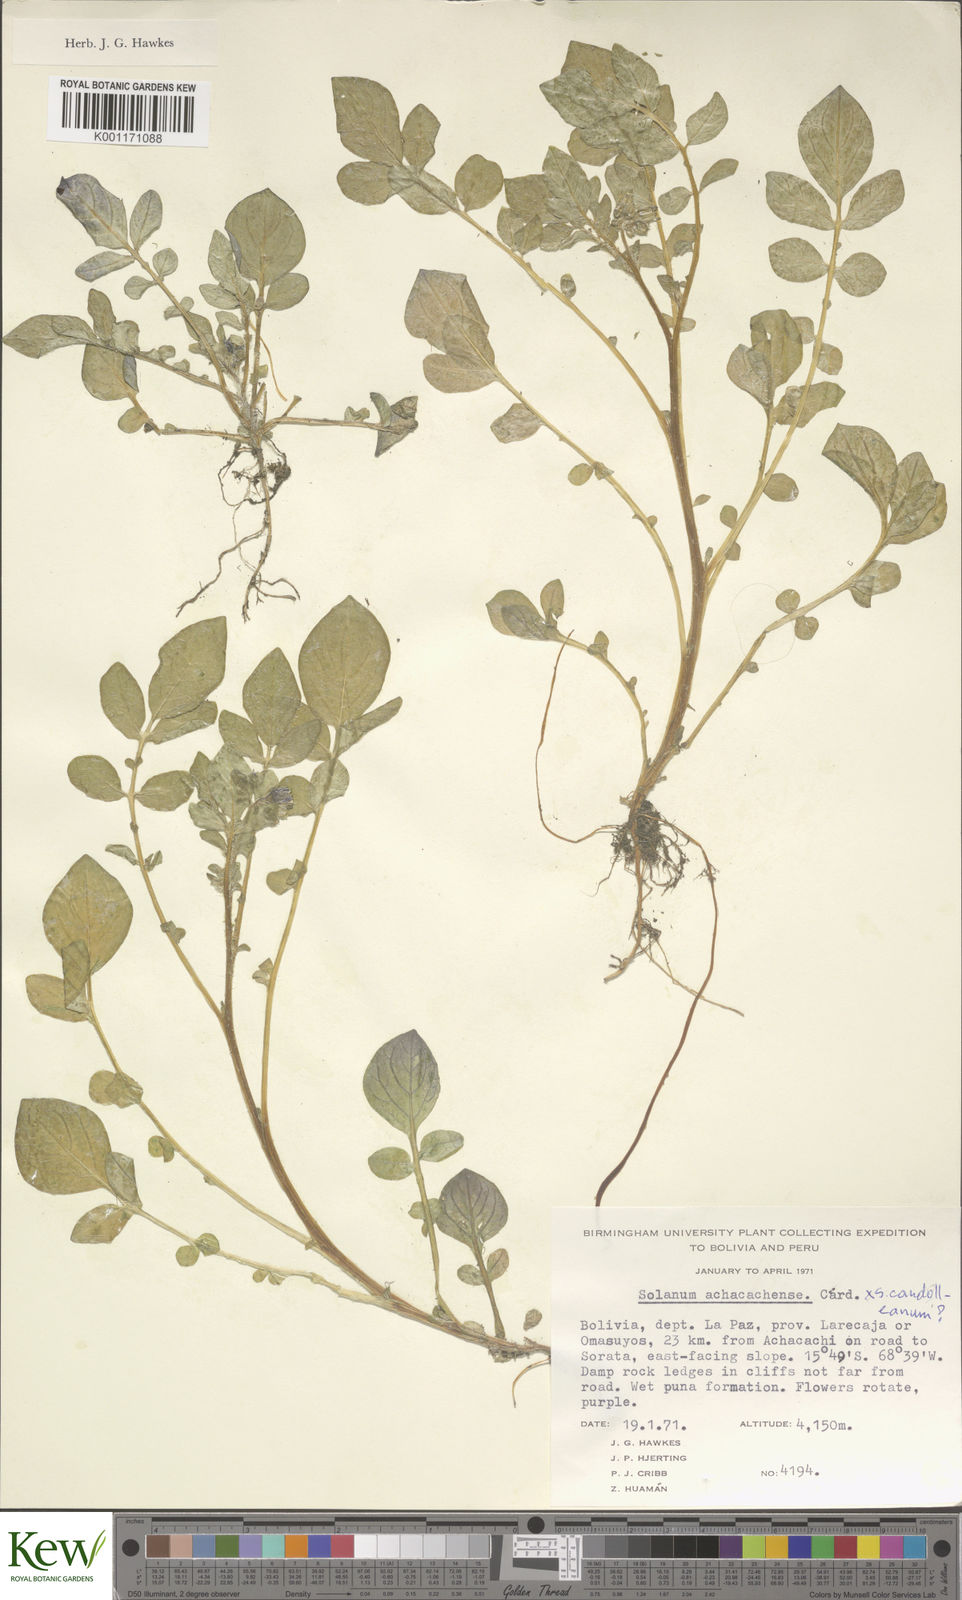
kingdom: Plantae
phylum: Tracheophyta
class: Magnoliopsida
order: Solanales
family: Solanaceae
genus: Solanum
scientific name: Solanum
